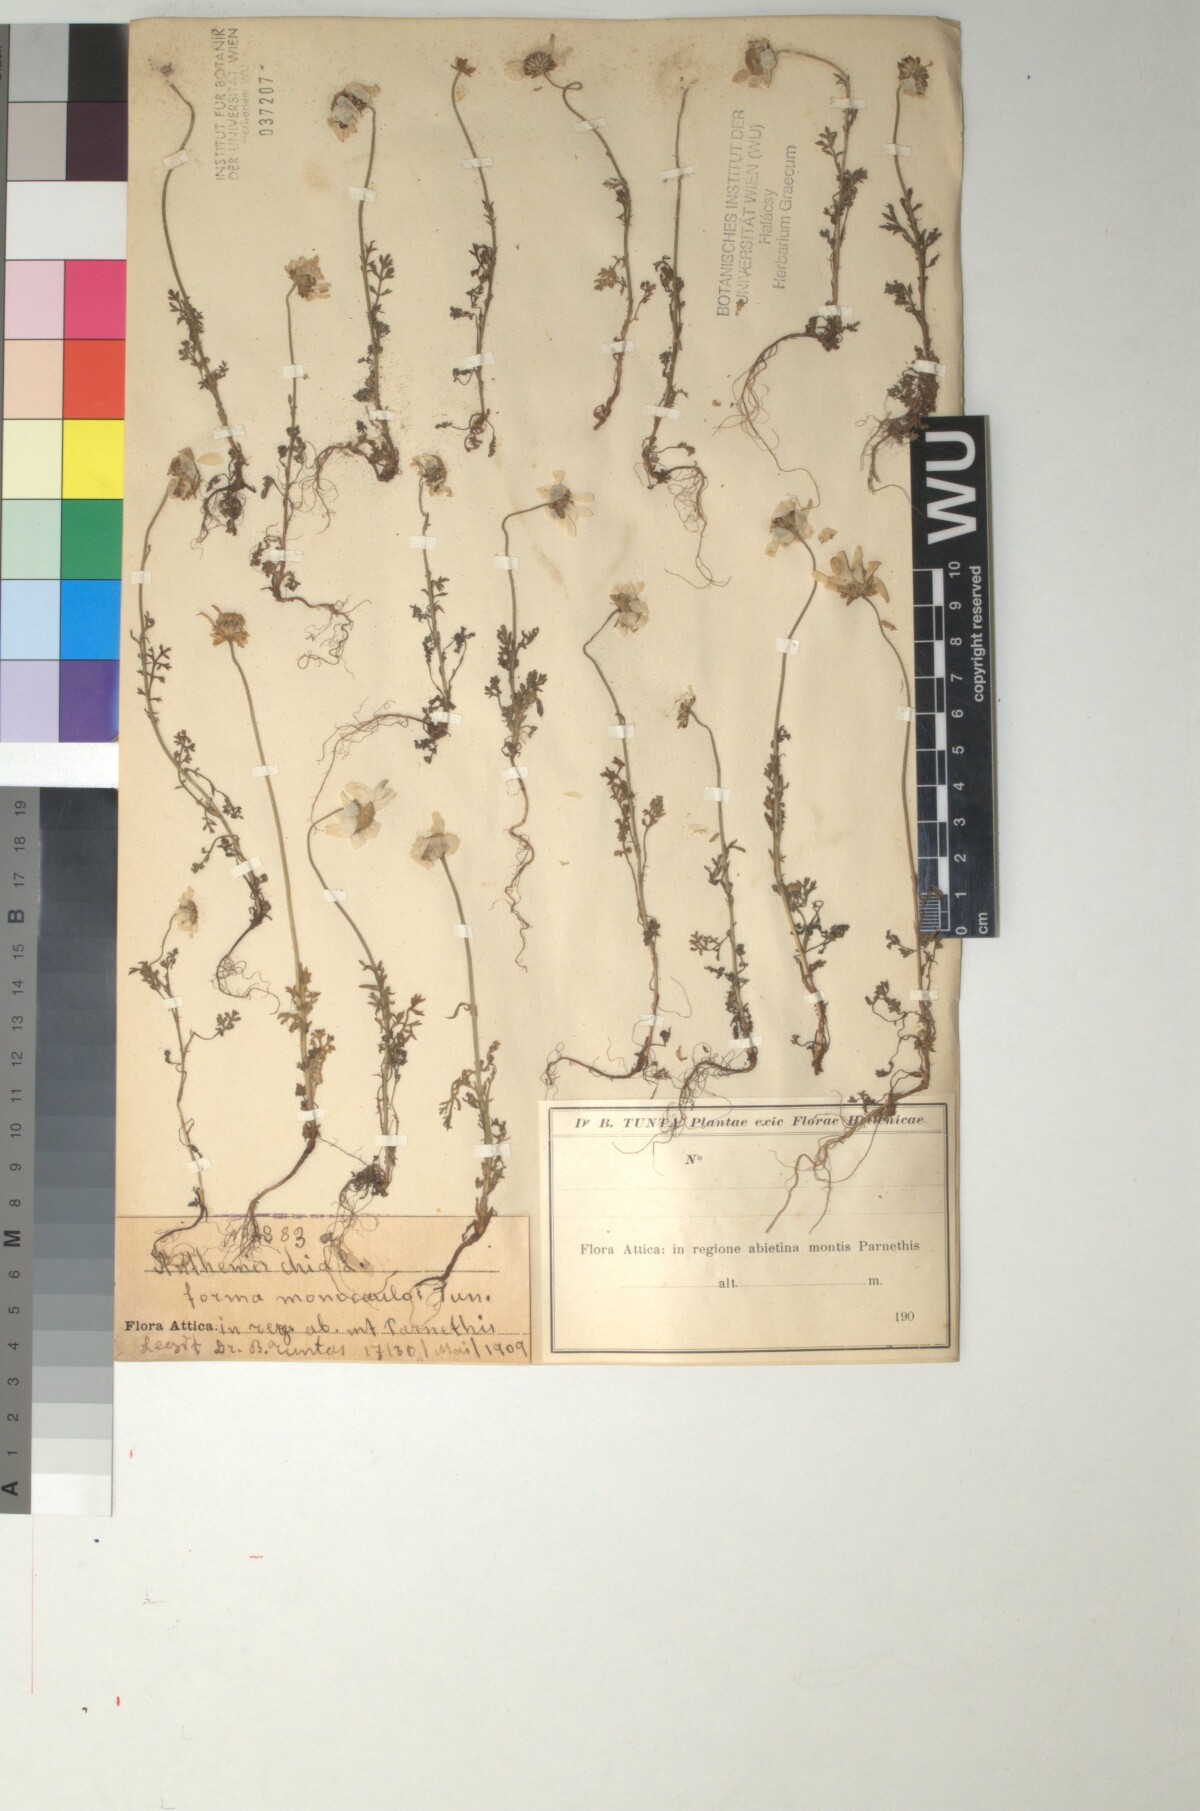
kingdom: Plantae
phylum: Tracheophyta
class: Magnoliopsida
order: Asterales
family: Asteraceae
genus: Anthemis
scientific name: Anthemis chia
